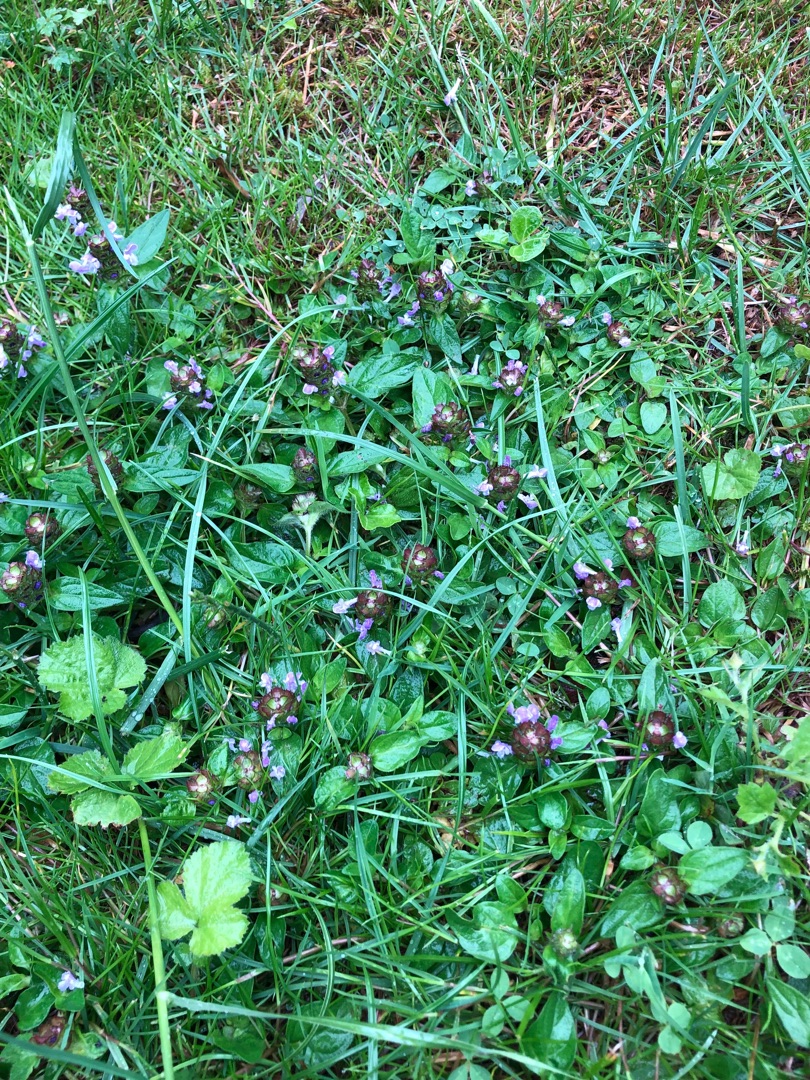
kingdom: Plantae
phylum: Tracheophyta
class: Magnoliopsida
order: Lamiales
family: Lamiaceae
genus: Prunella
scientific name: Prunella vulgaris
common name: Almindelig brunelle
